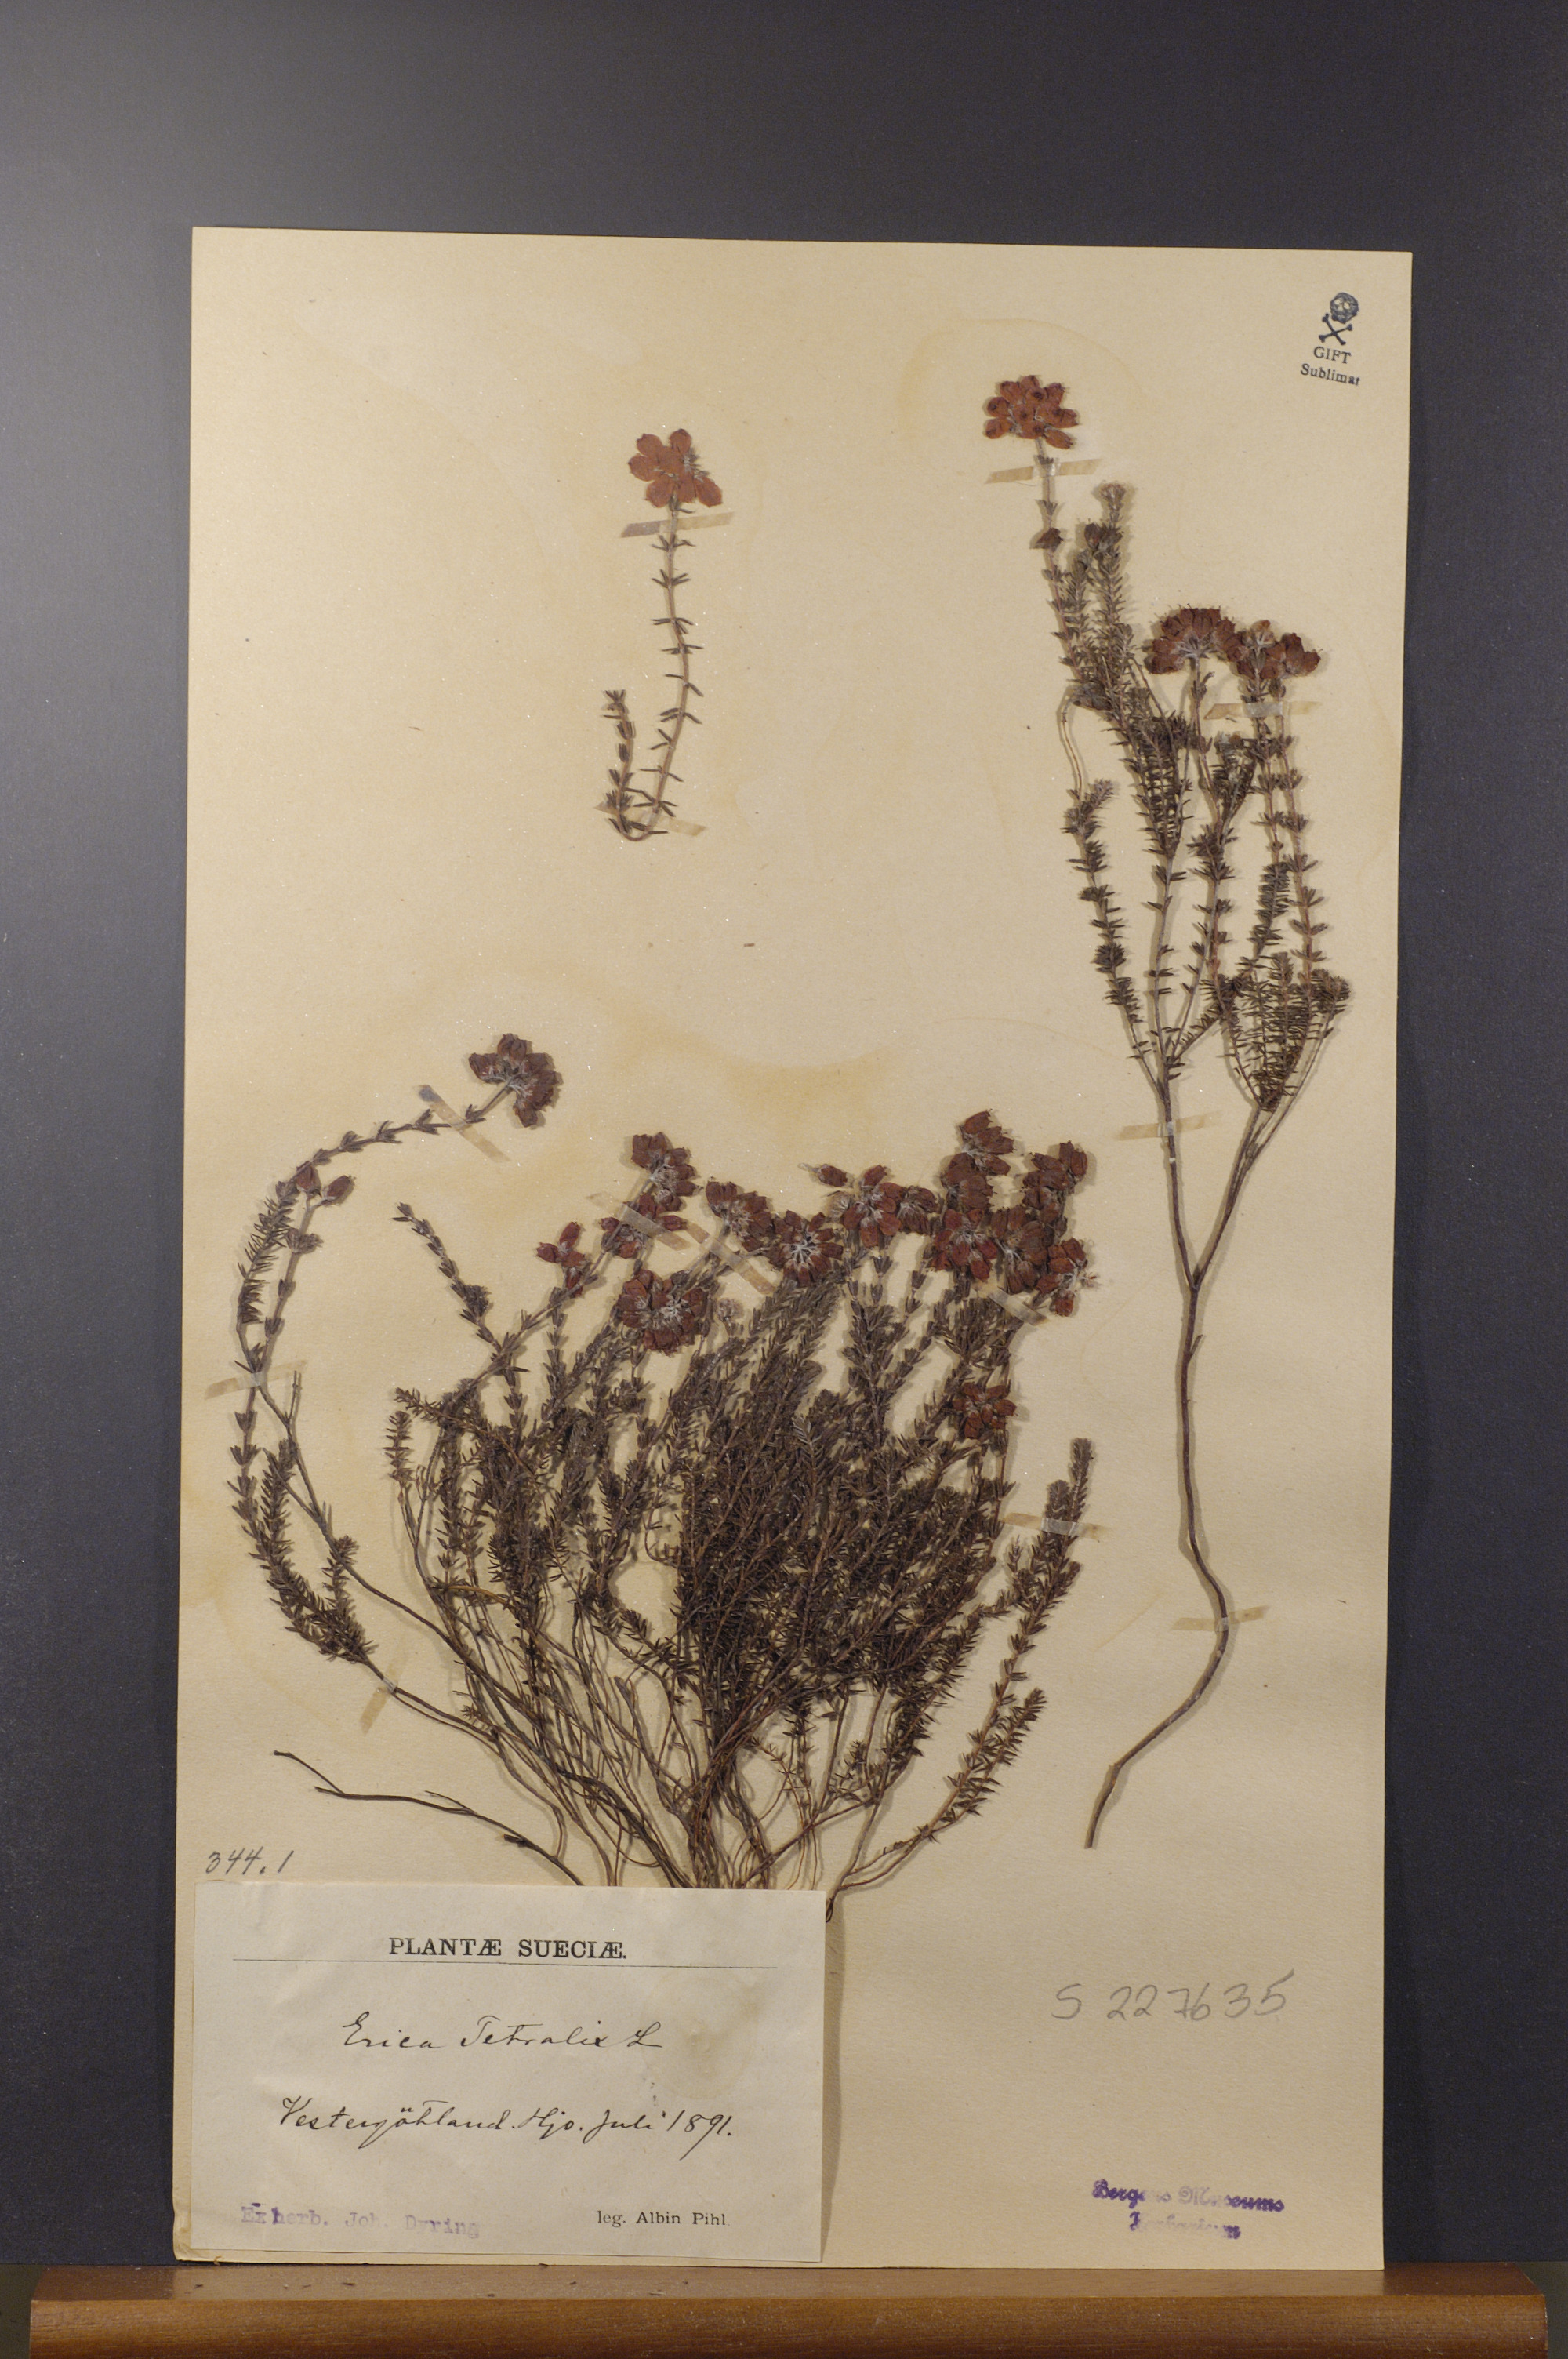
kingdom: Plantae
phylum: Tracheophyta
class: Magnoliopsida
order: Ericales
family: Ericaceae
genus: Erica
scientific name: Erica tetralix
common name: Cross-leaved heath
